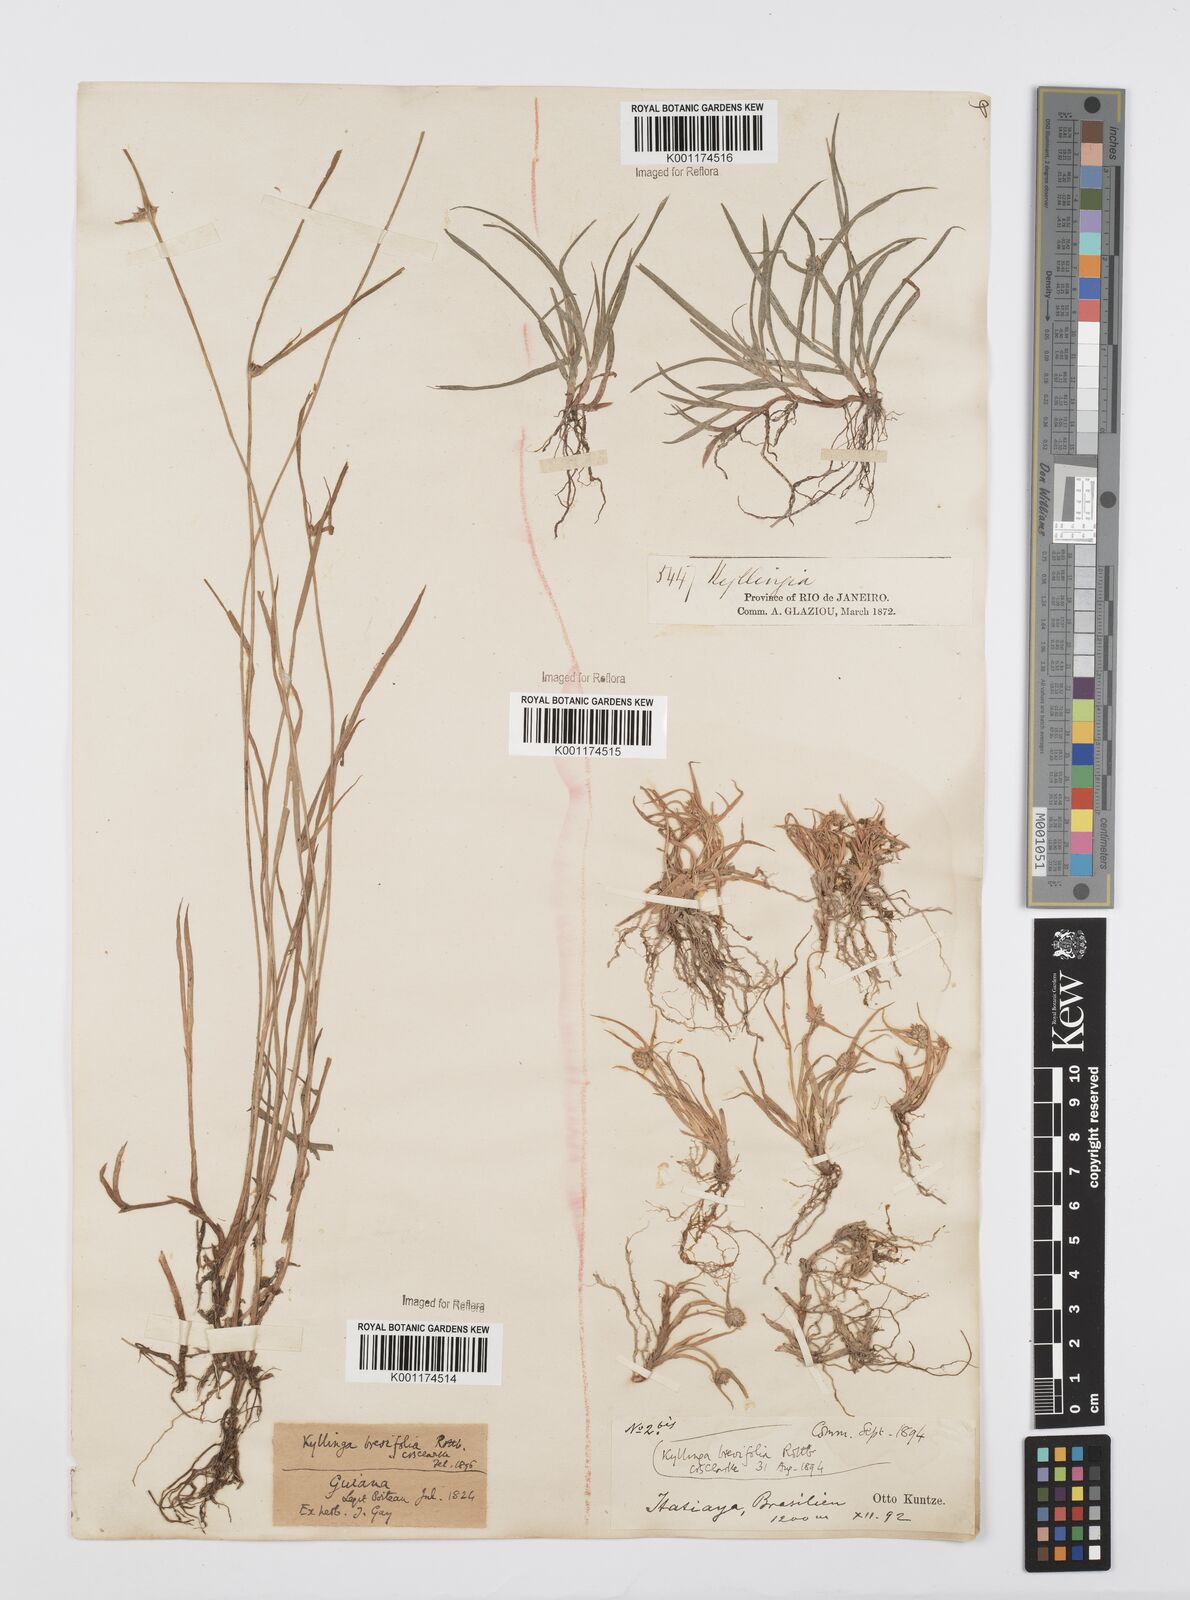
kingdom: Plantae
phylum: Tracheophyta
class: Liliopsida
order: Poales
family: Cyperaceae
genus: Cyperus
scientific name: Cyperus brevifolius
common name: Globe kyllinga
